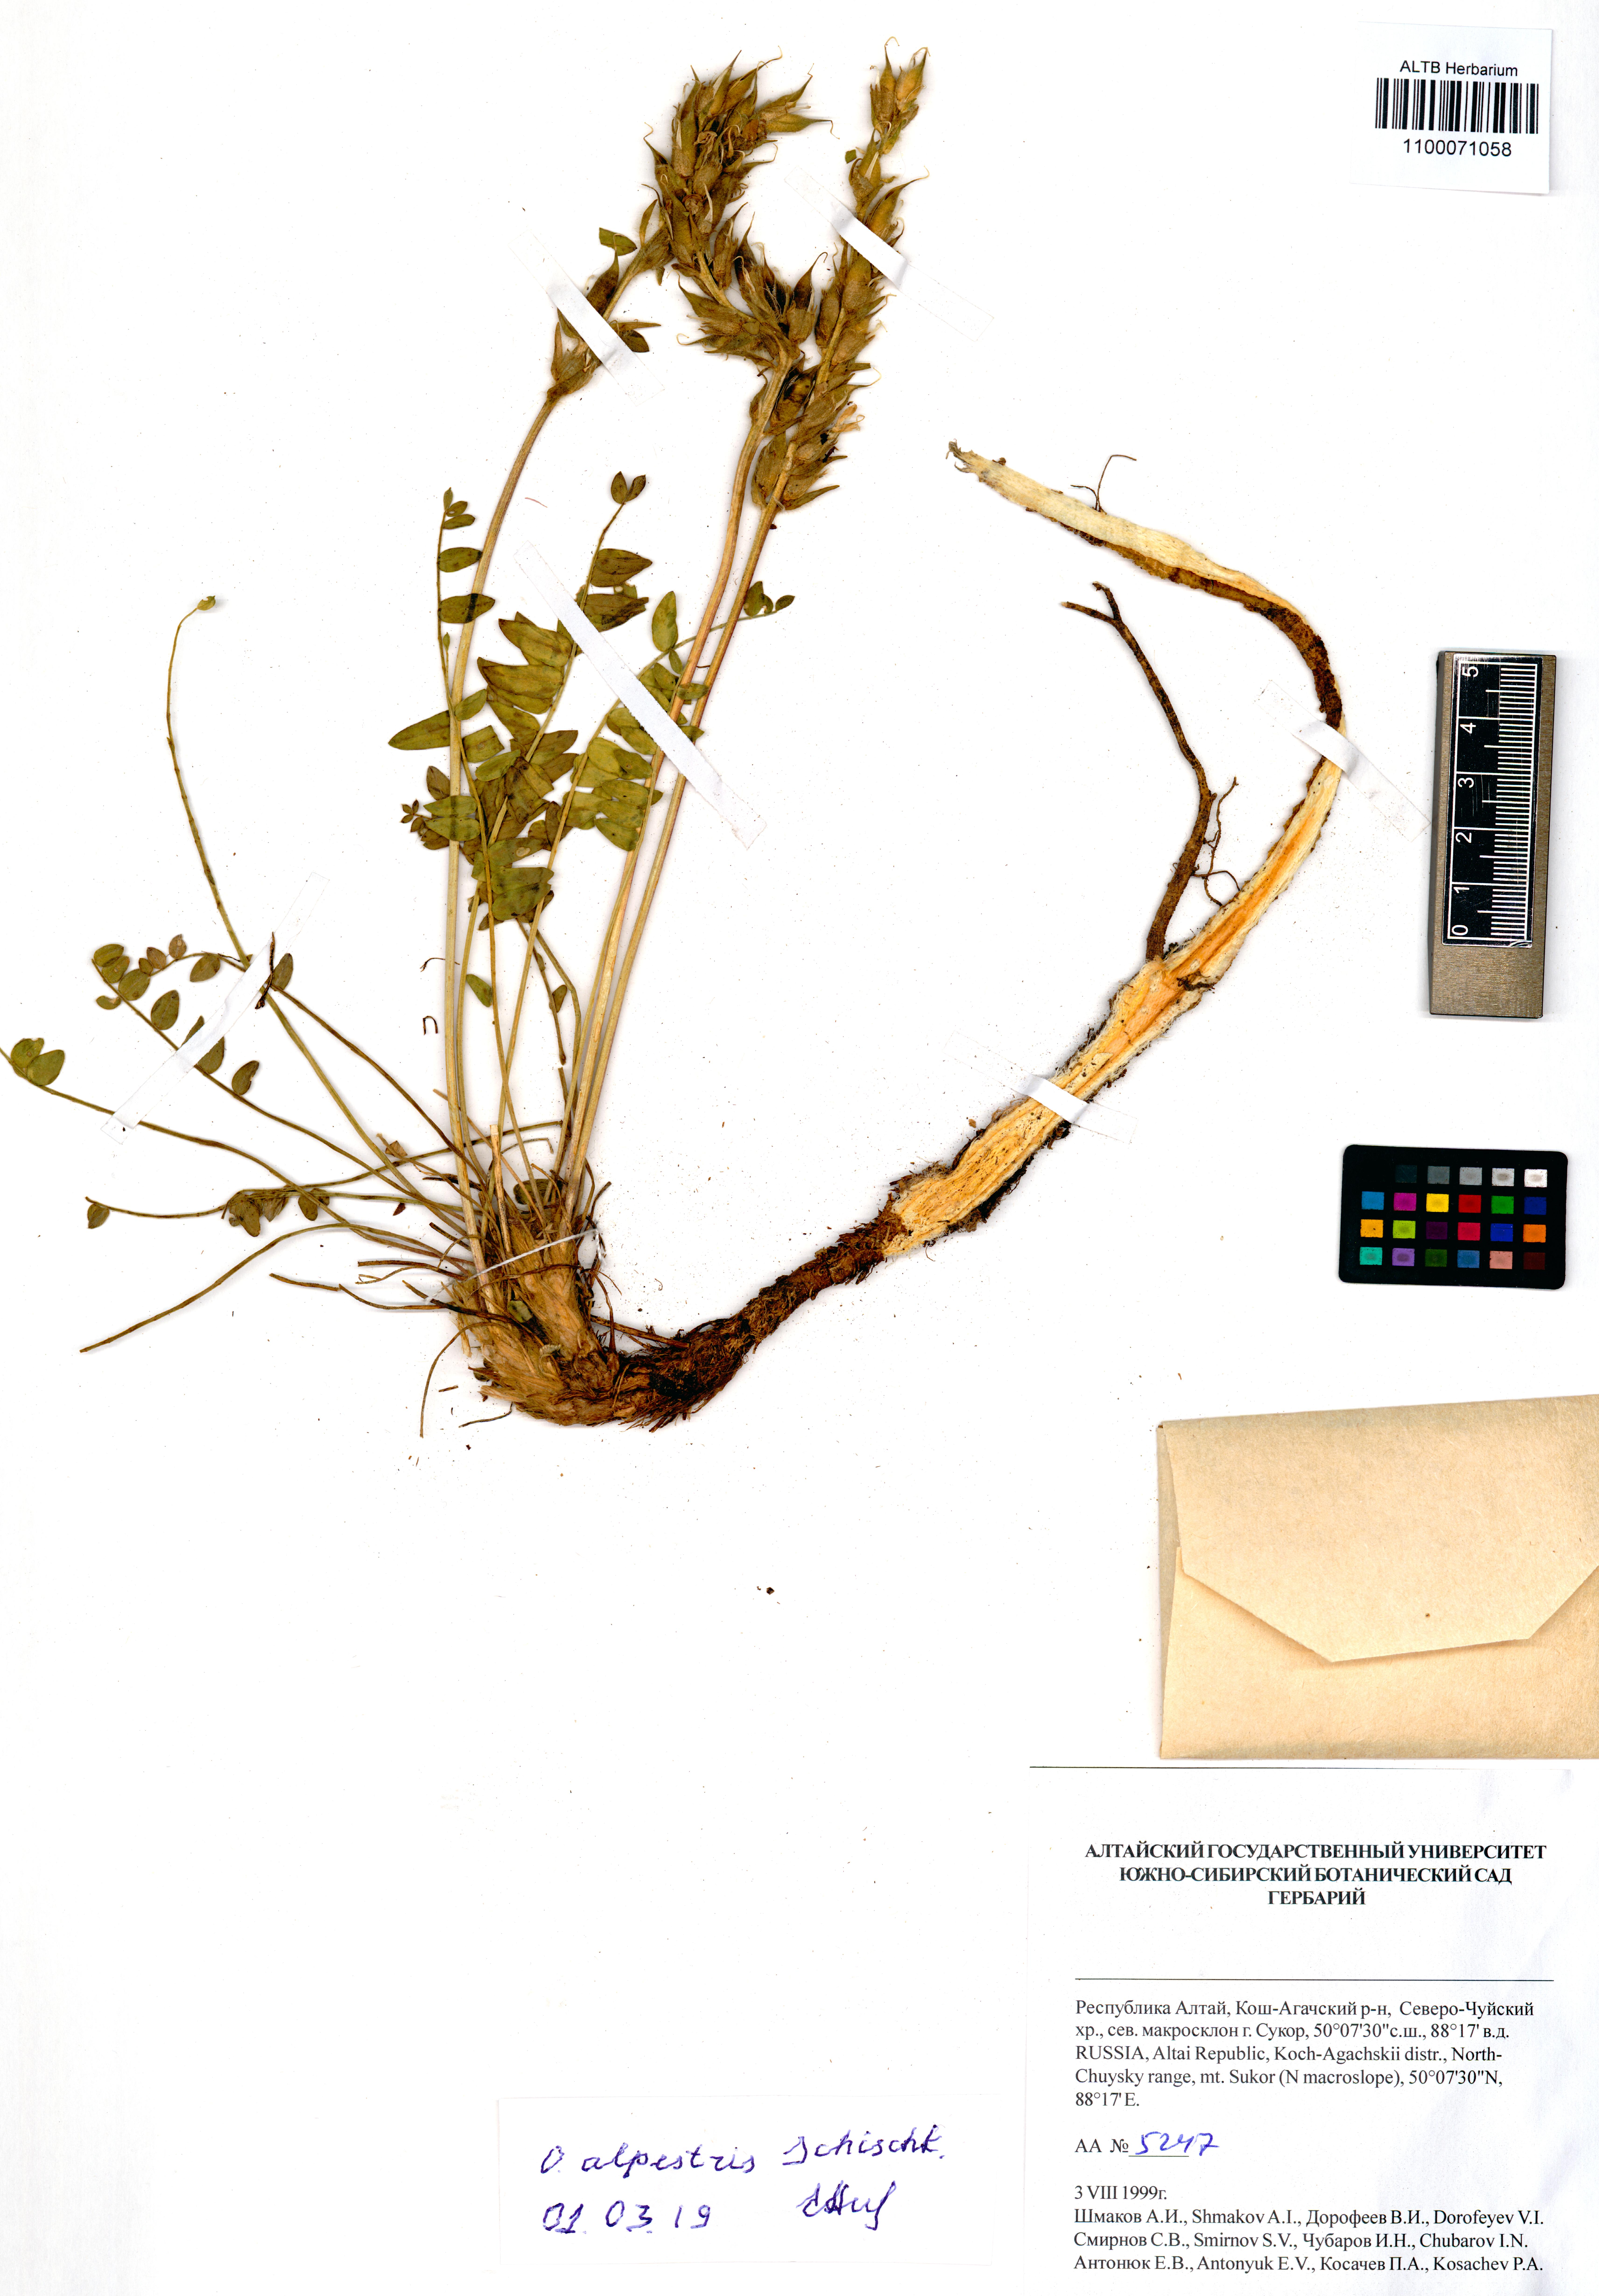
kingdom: Plantae
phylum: Tracheophyta
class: Magnoliopsida
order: Fabales
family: Fabaceae
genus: Oxytropis
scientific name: Oxytropis alpestris
